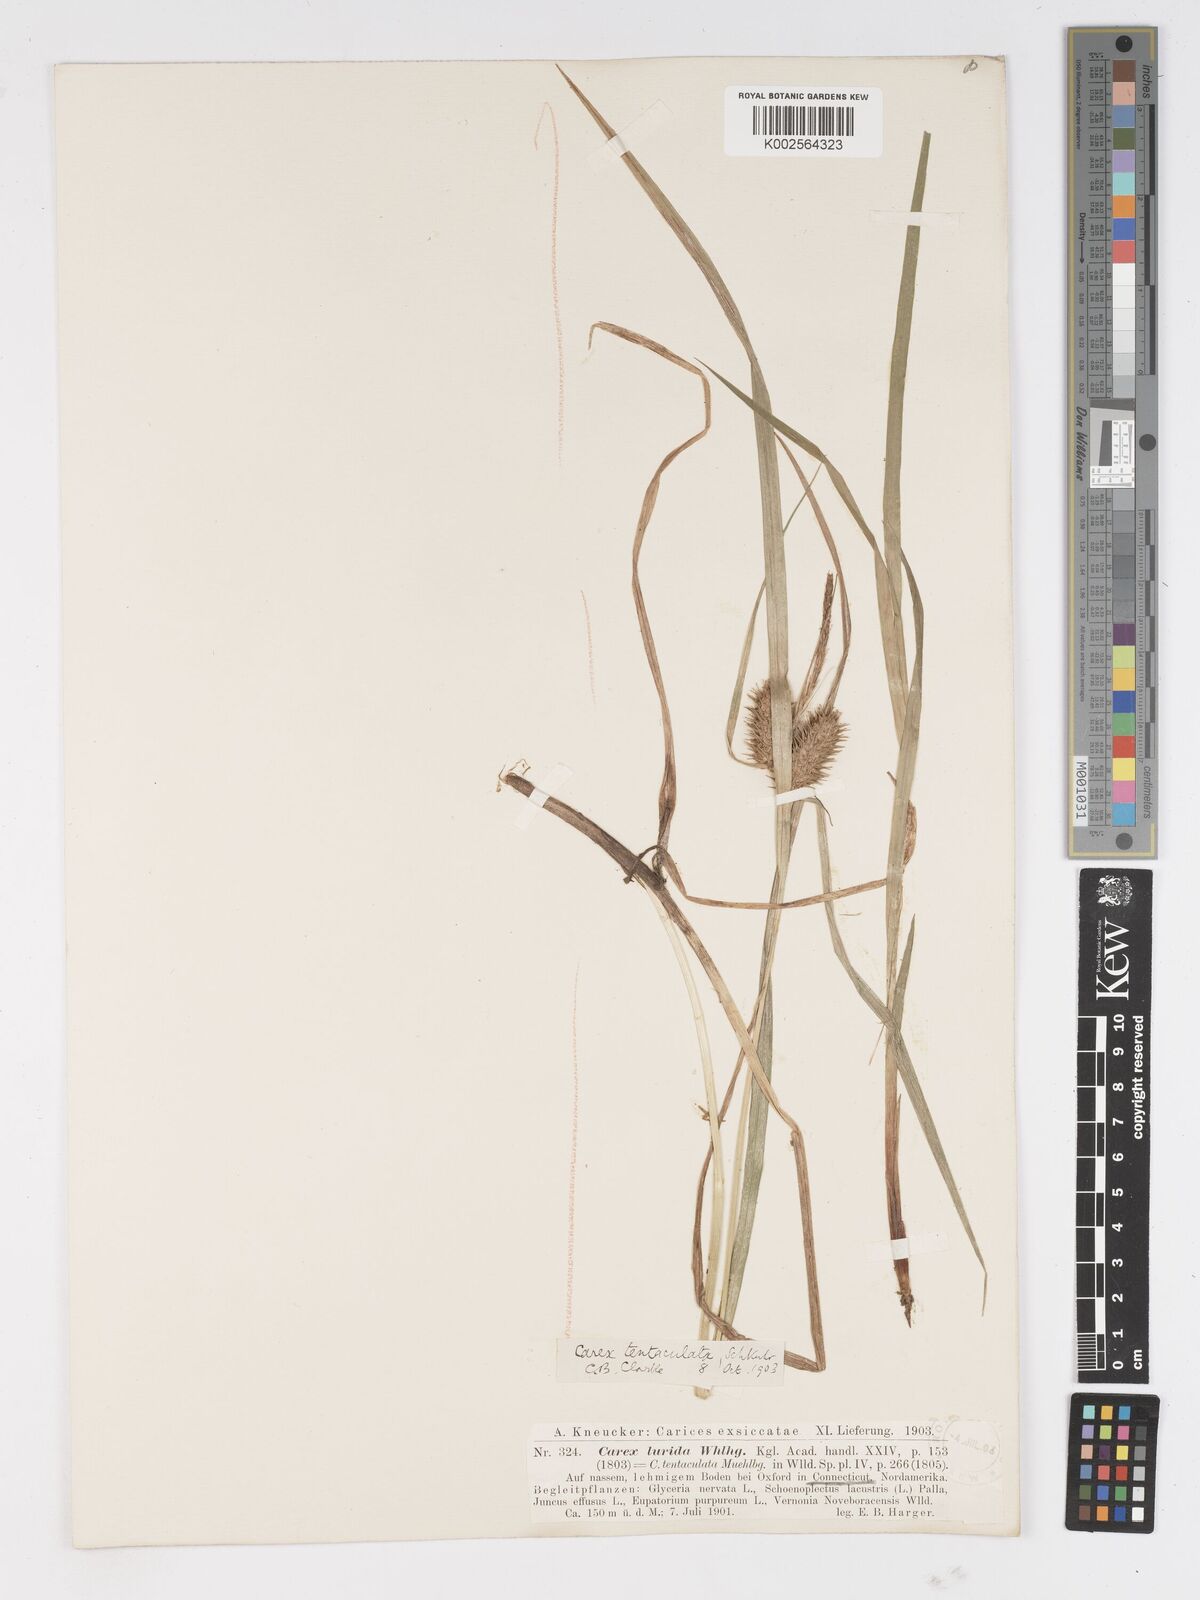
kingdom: Plantae
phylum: Tracheophyta
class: Liliopsida
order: Poales
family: Cyperaceae
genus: Carex
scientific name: Carex lurida
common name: Sallow sedge
